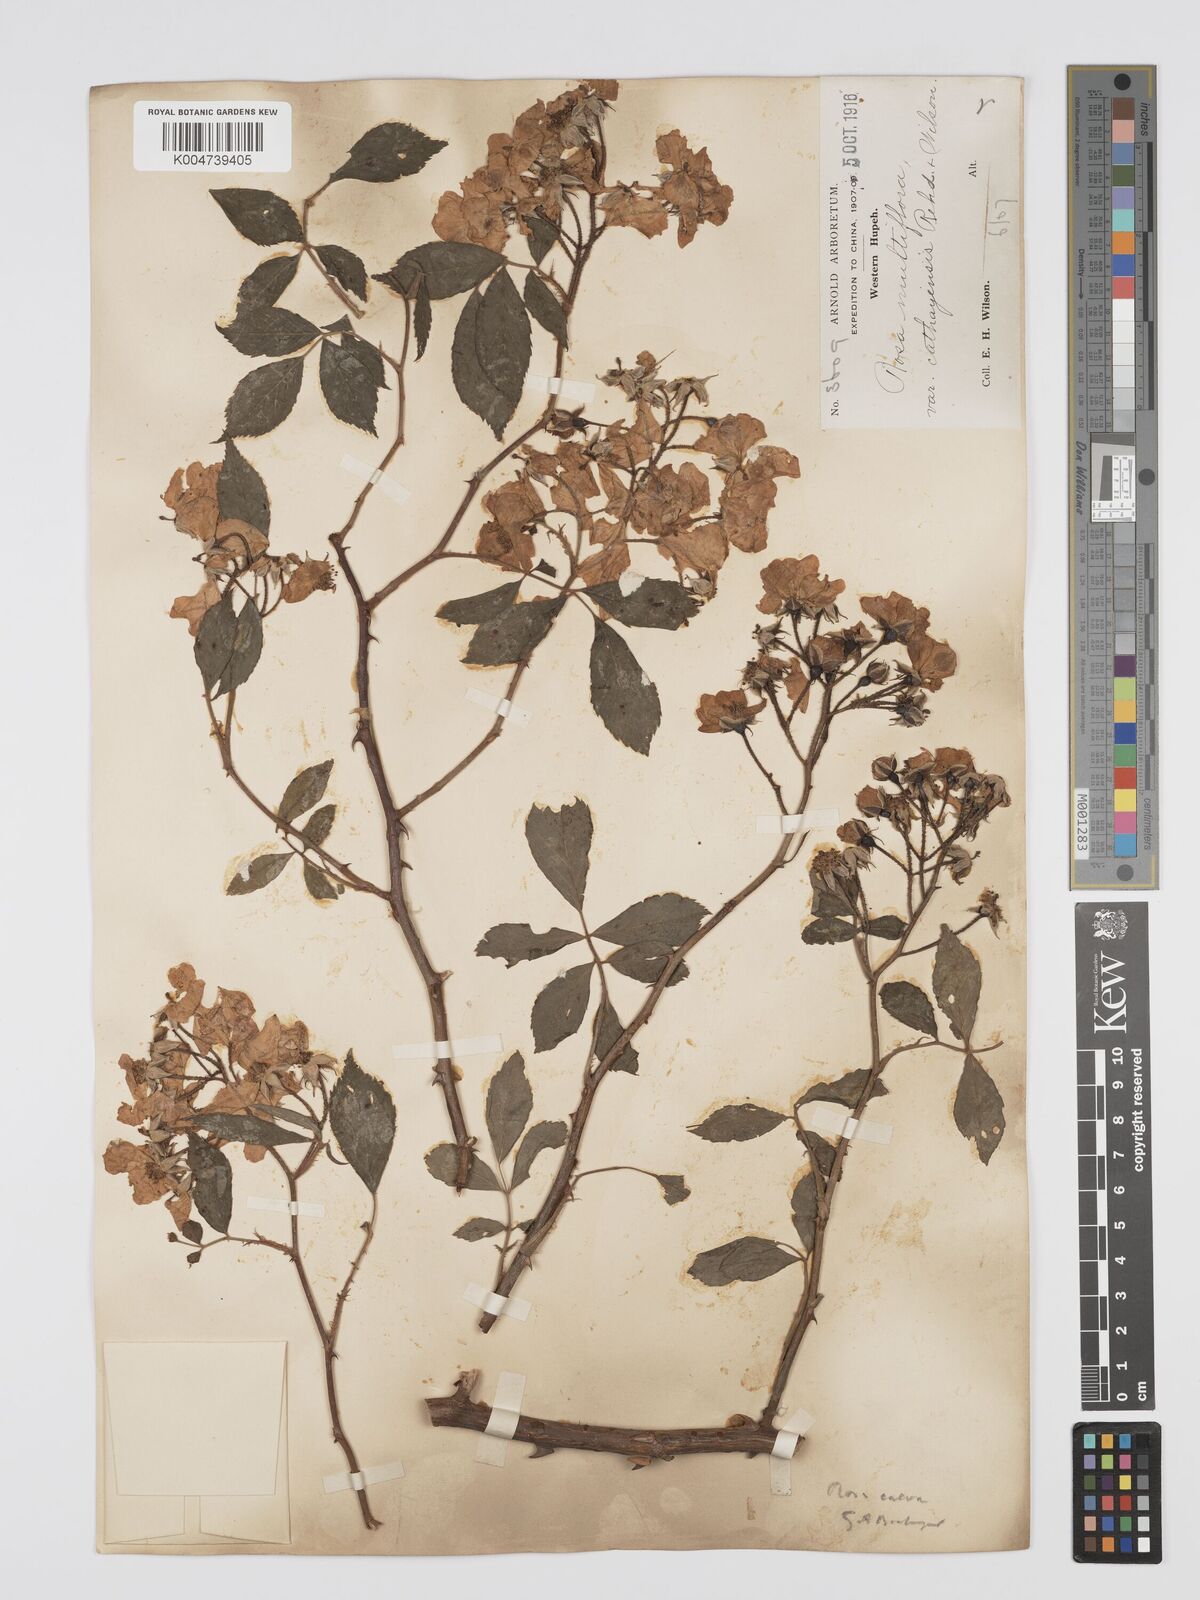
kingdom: Plantae
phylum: Tracheophyta
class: Magnoliopsida
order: Rosales
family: Rosaceae
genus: Rosa
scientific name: Rosa
